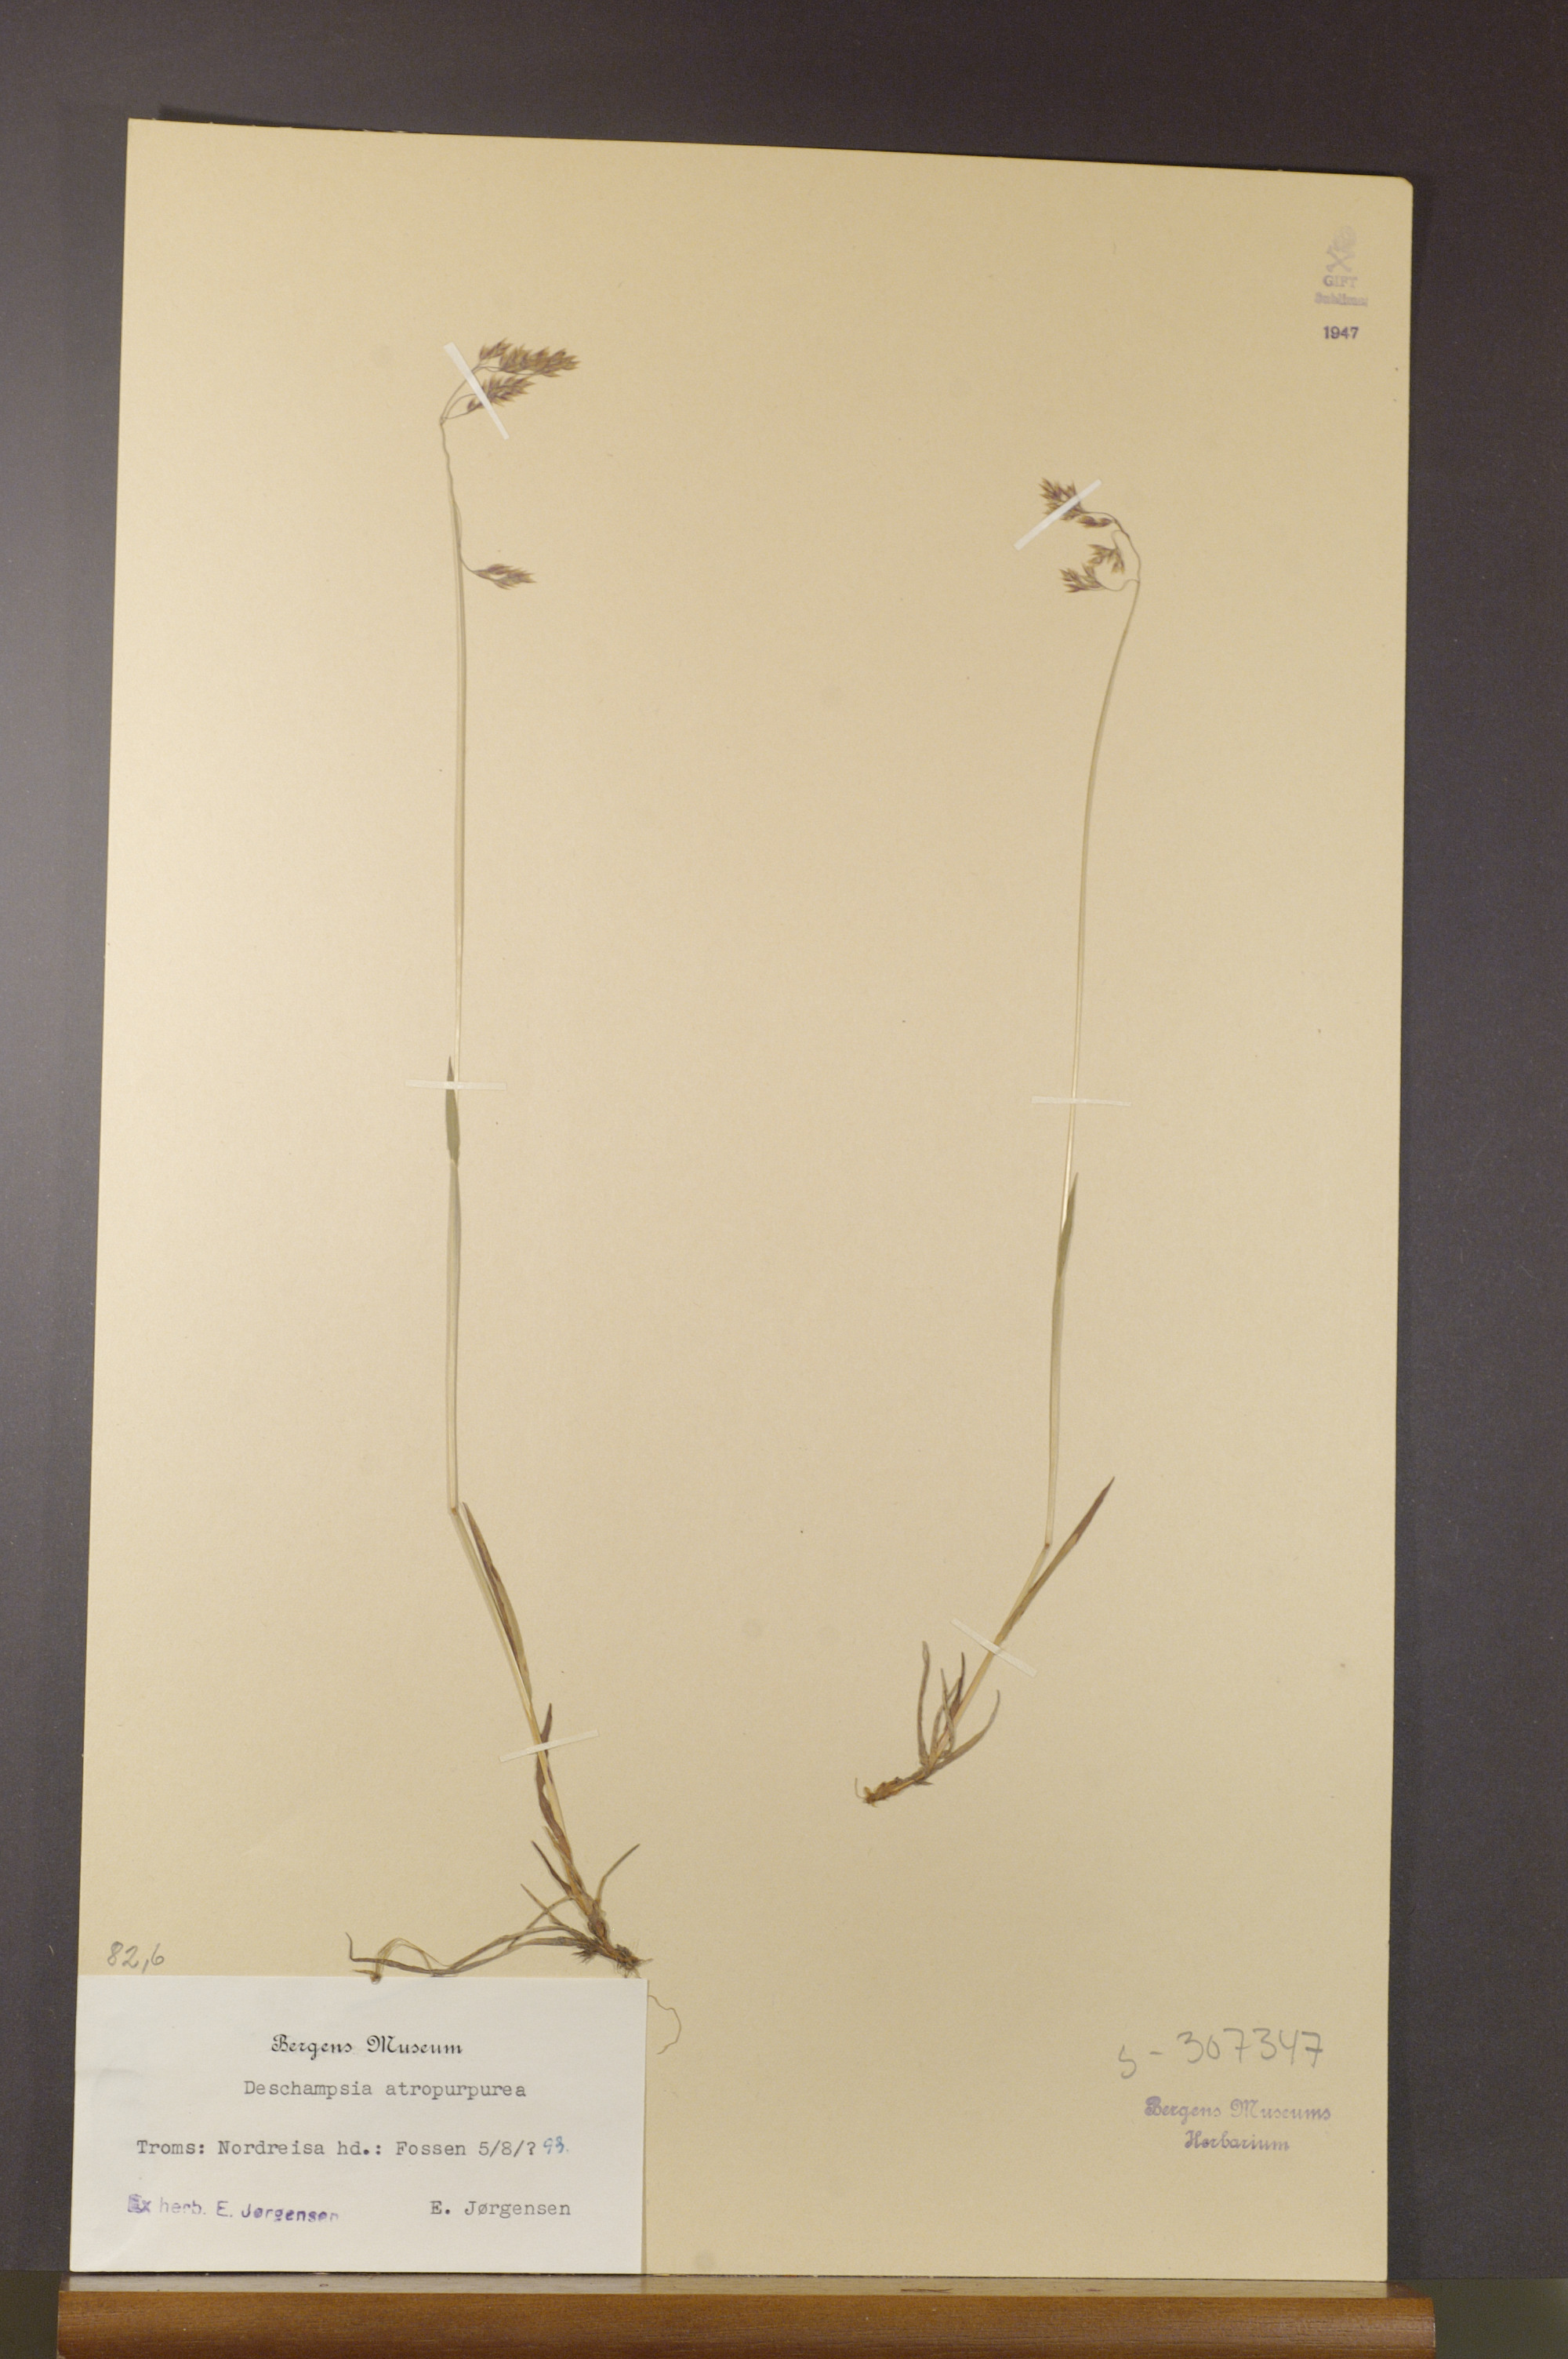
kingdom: Plantae
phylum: Tracheophyta
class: Liliopsida
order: Poales
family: Poaceae
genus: Vahlodea
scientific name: Vahlodea atropurpurea
